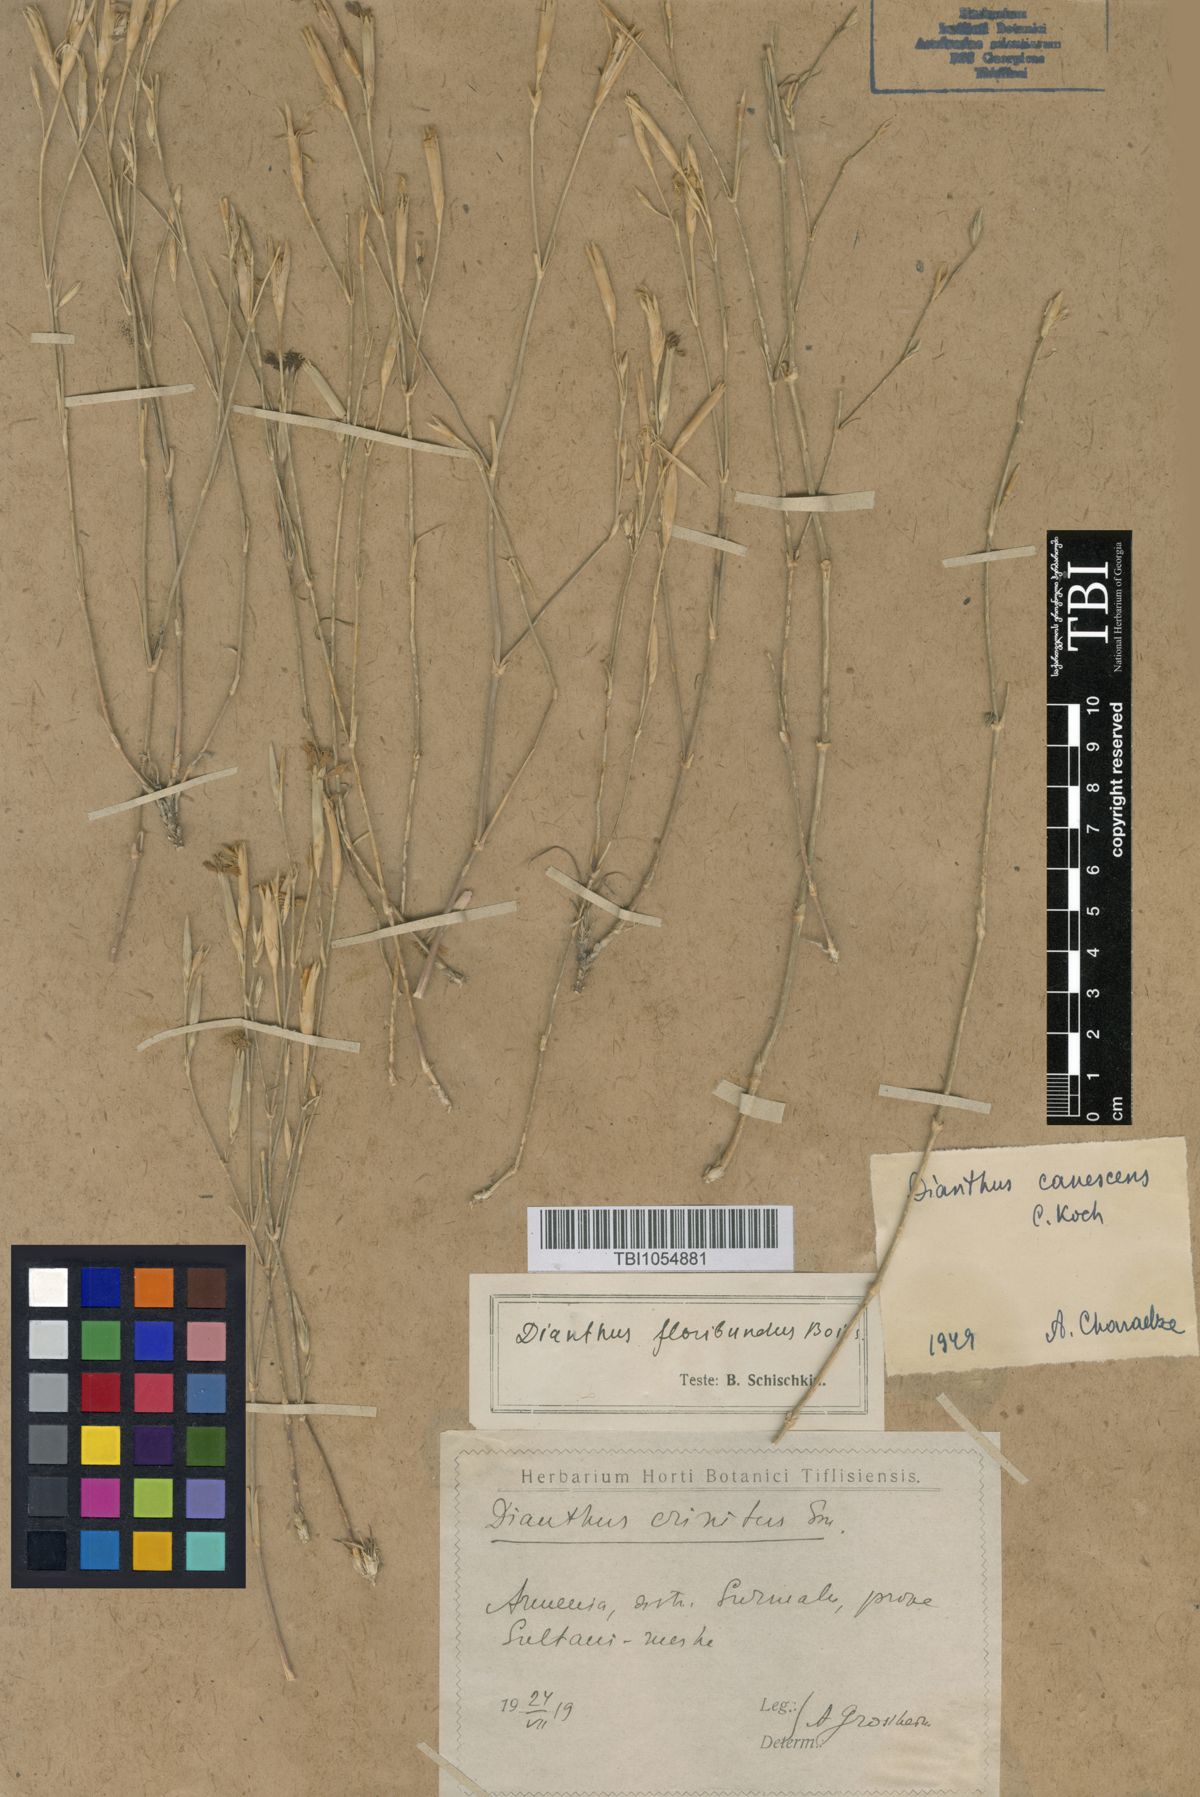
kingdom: Plantae
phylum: Tracheophyta
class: Magnoliopsida
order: Caryophyllales
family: Caryophyllaceae
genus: Dianthus
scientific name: Dianthus orientalis
